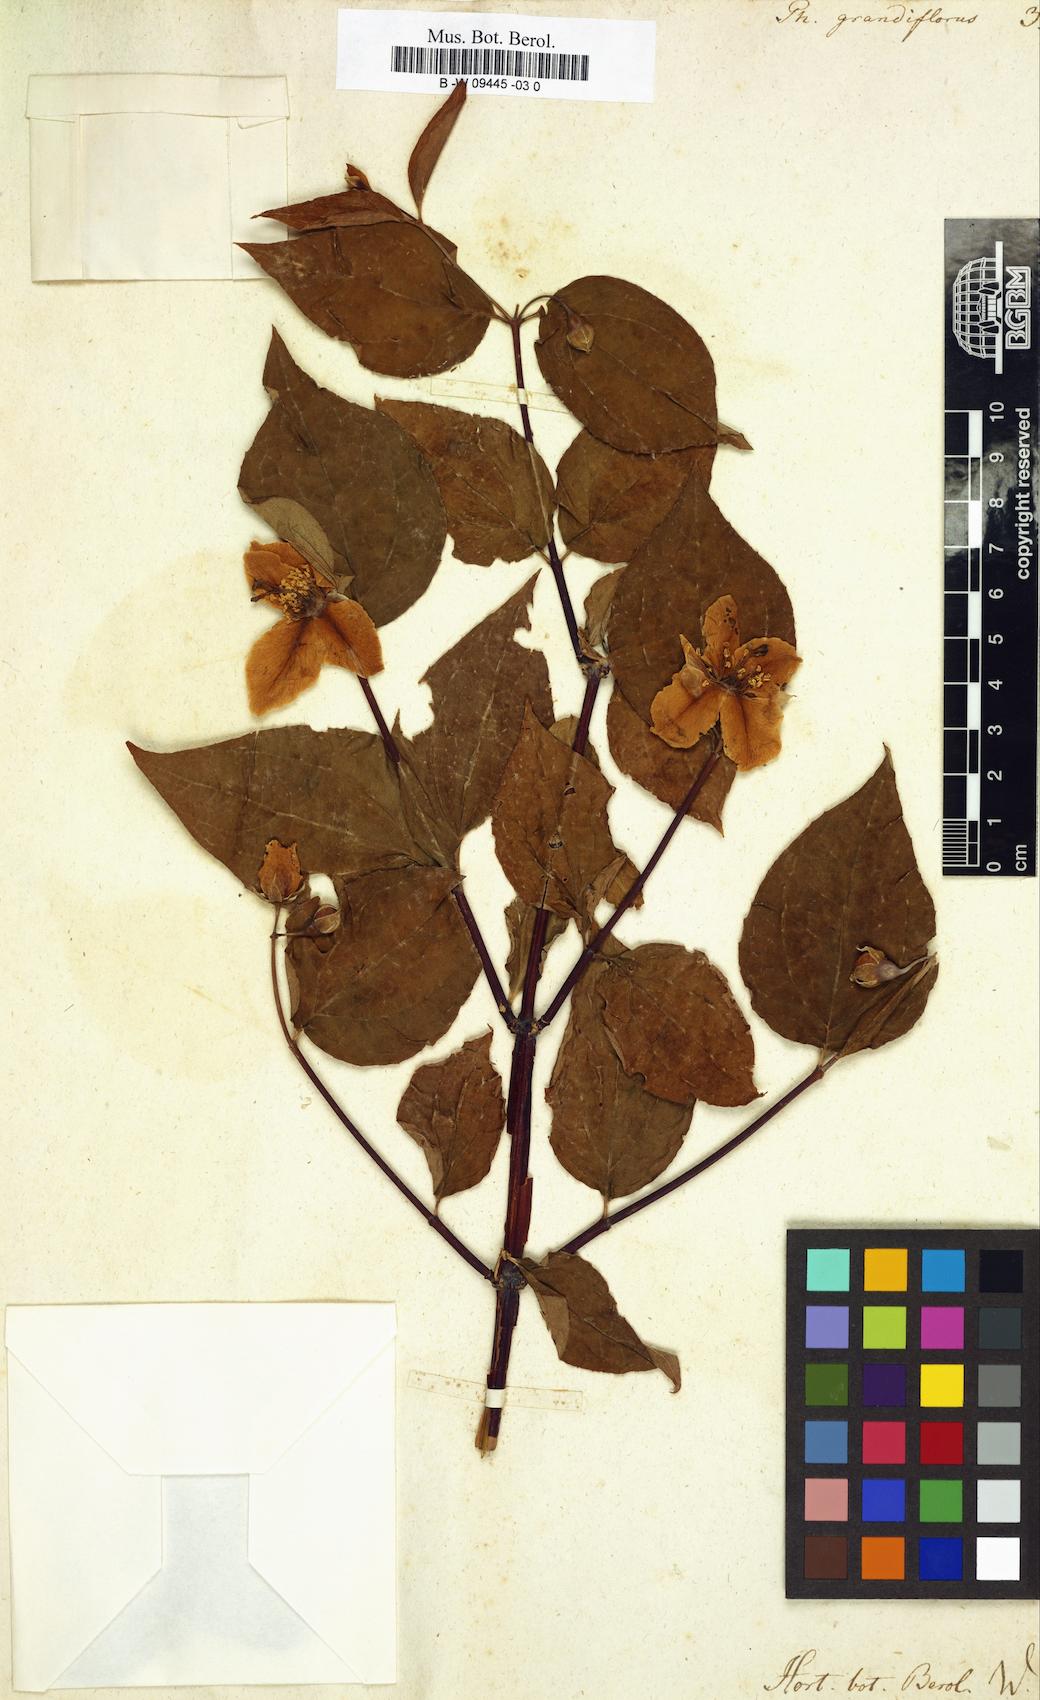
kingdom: Plantae
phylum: Tracheophyta
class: Magnoliopsida
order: Cornales
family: Hydrangeaceae
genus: Philadelphus
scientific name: Philadelphus
